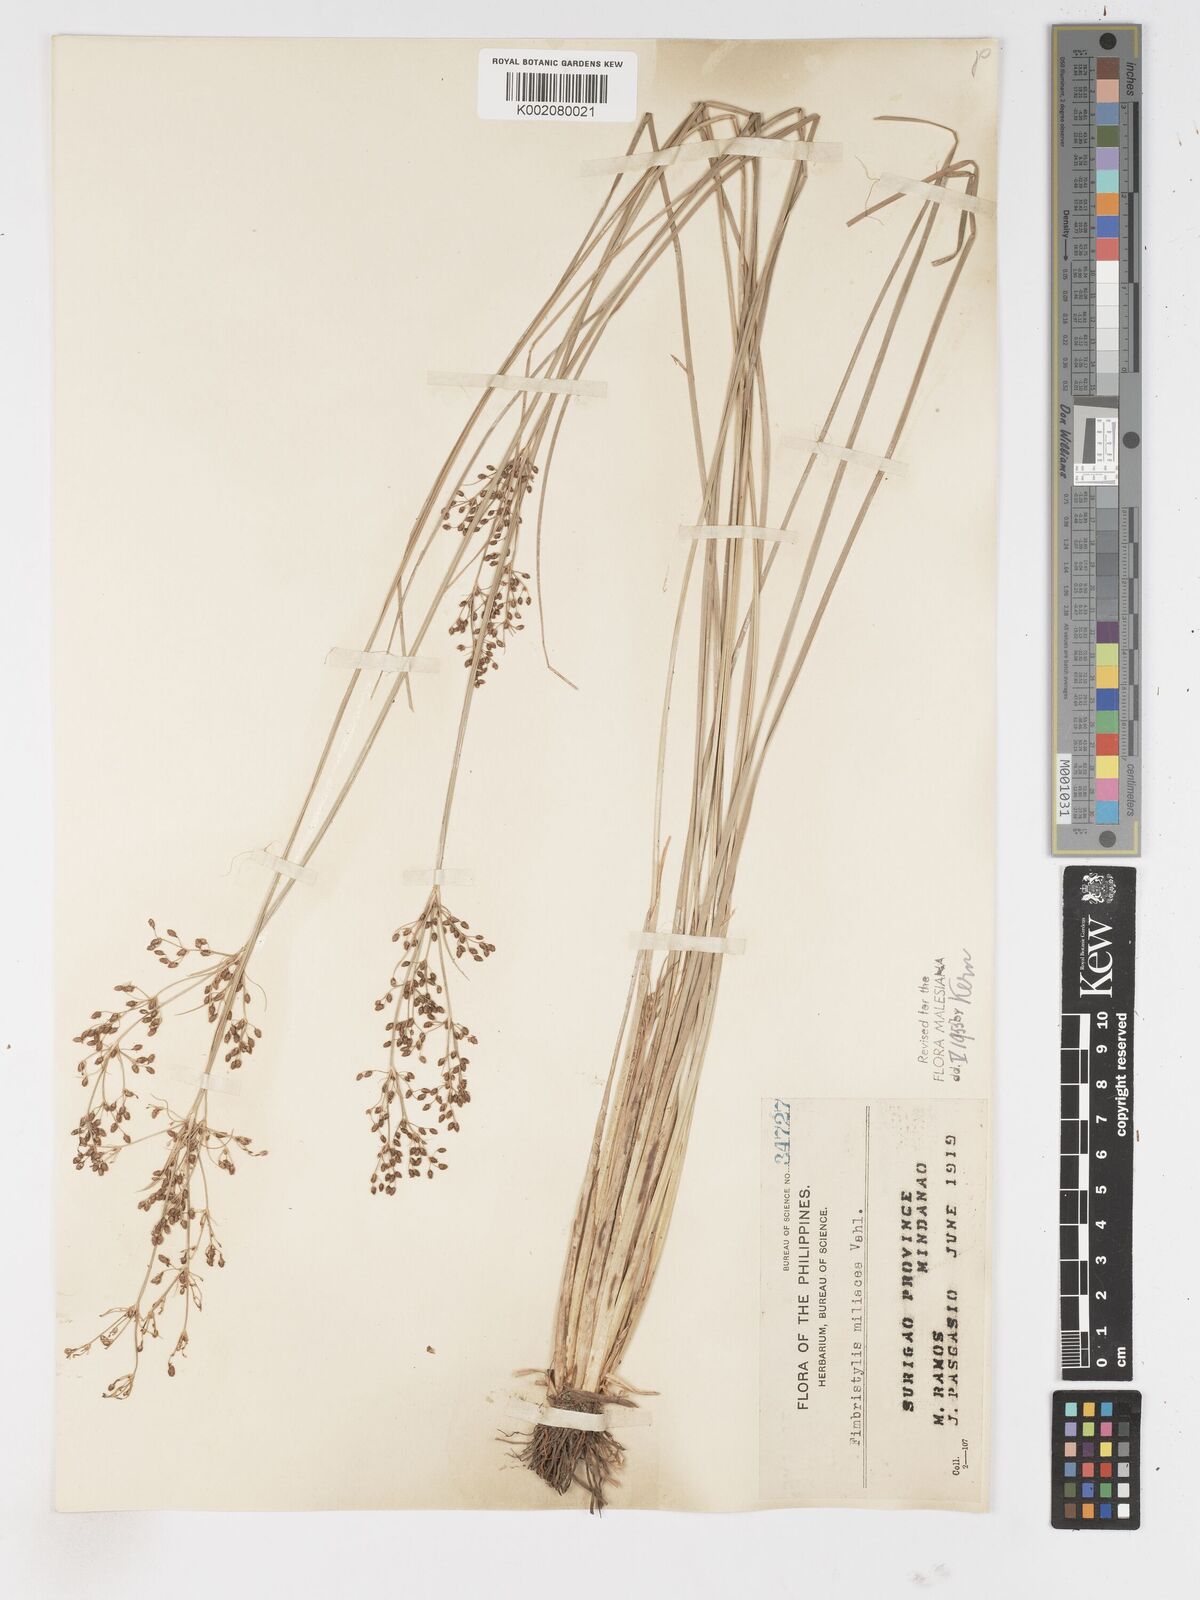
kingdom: Plantae
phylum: Tracheophyta
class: Liliopsida
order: Poales
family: Cyperaceae
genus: Fimbristylis
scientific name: Fimbristylis littoralis
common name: Fimbry
